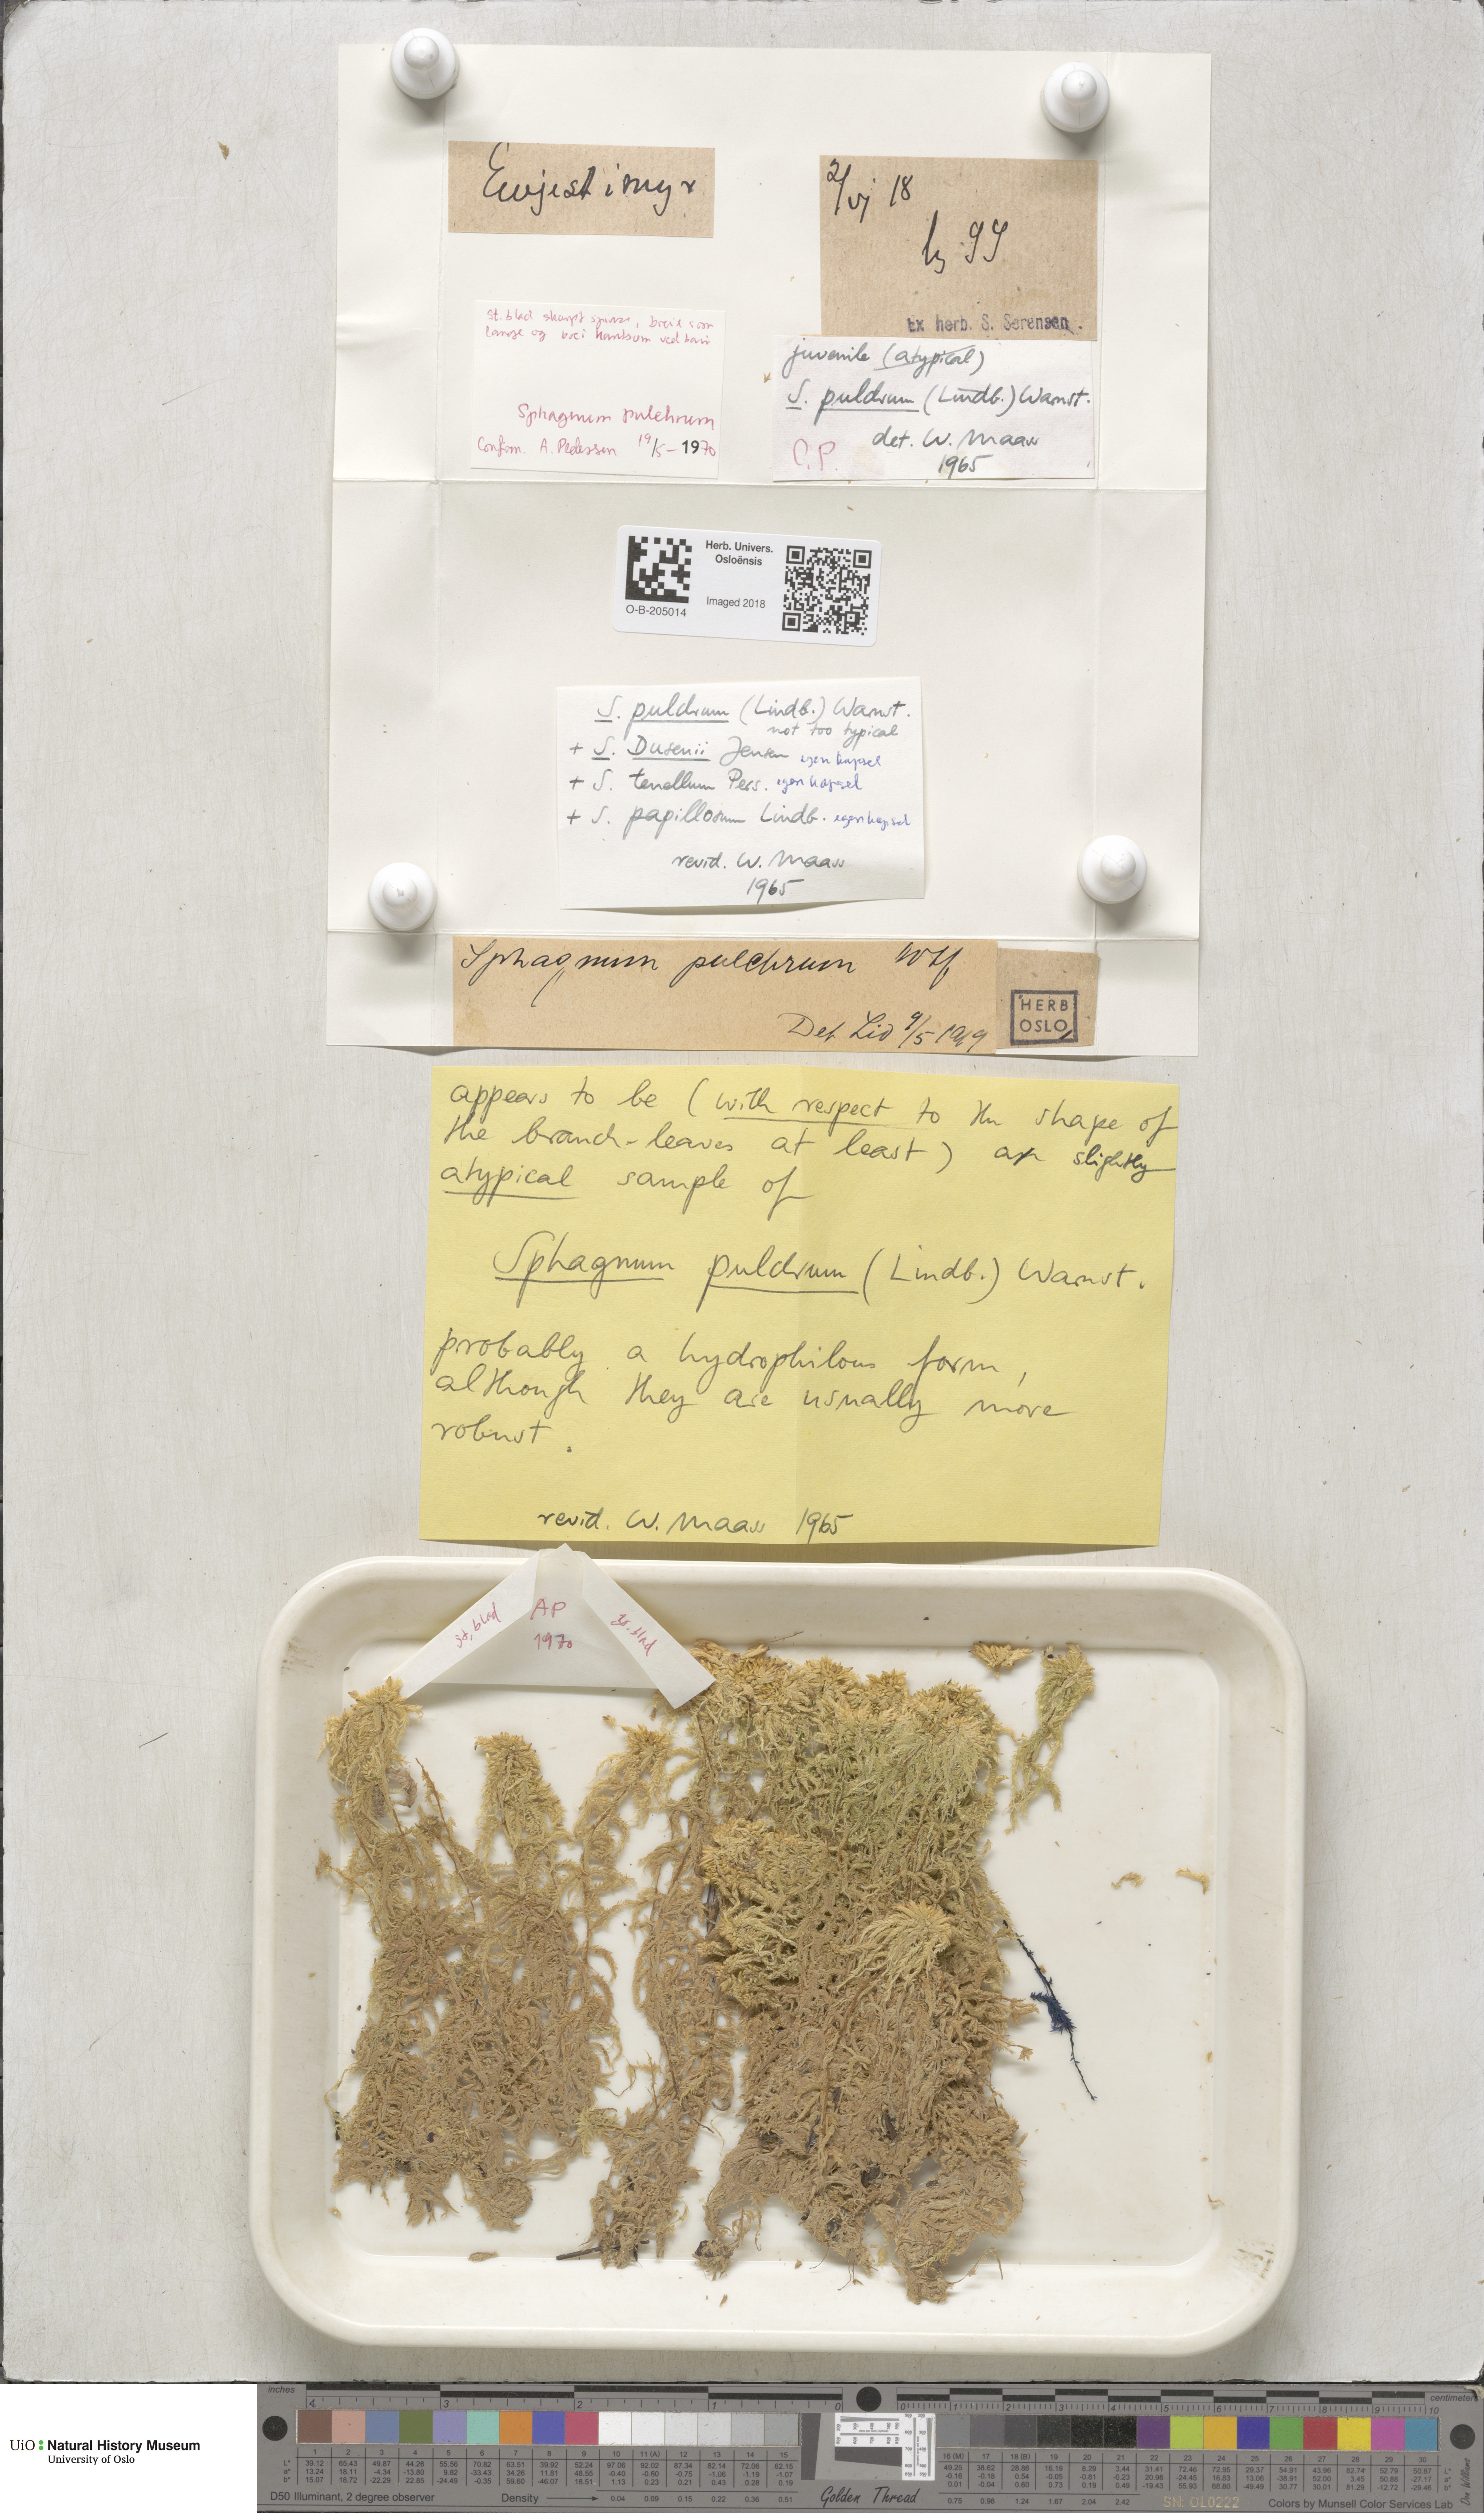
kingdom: Plantae
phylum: Bryophyta
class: Sphagnopsida
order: Sphagnales
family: Sphagnaceae
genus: Sphagnum
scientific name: Sphagnum pulchrum
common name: Beautiful peat moss
